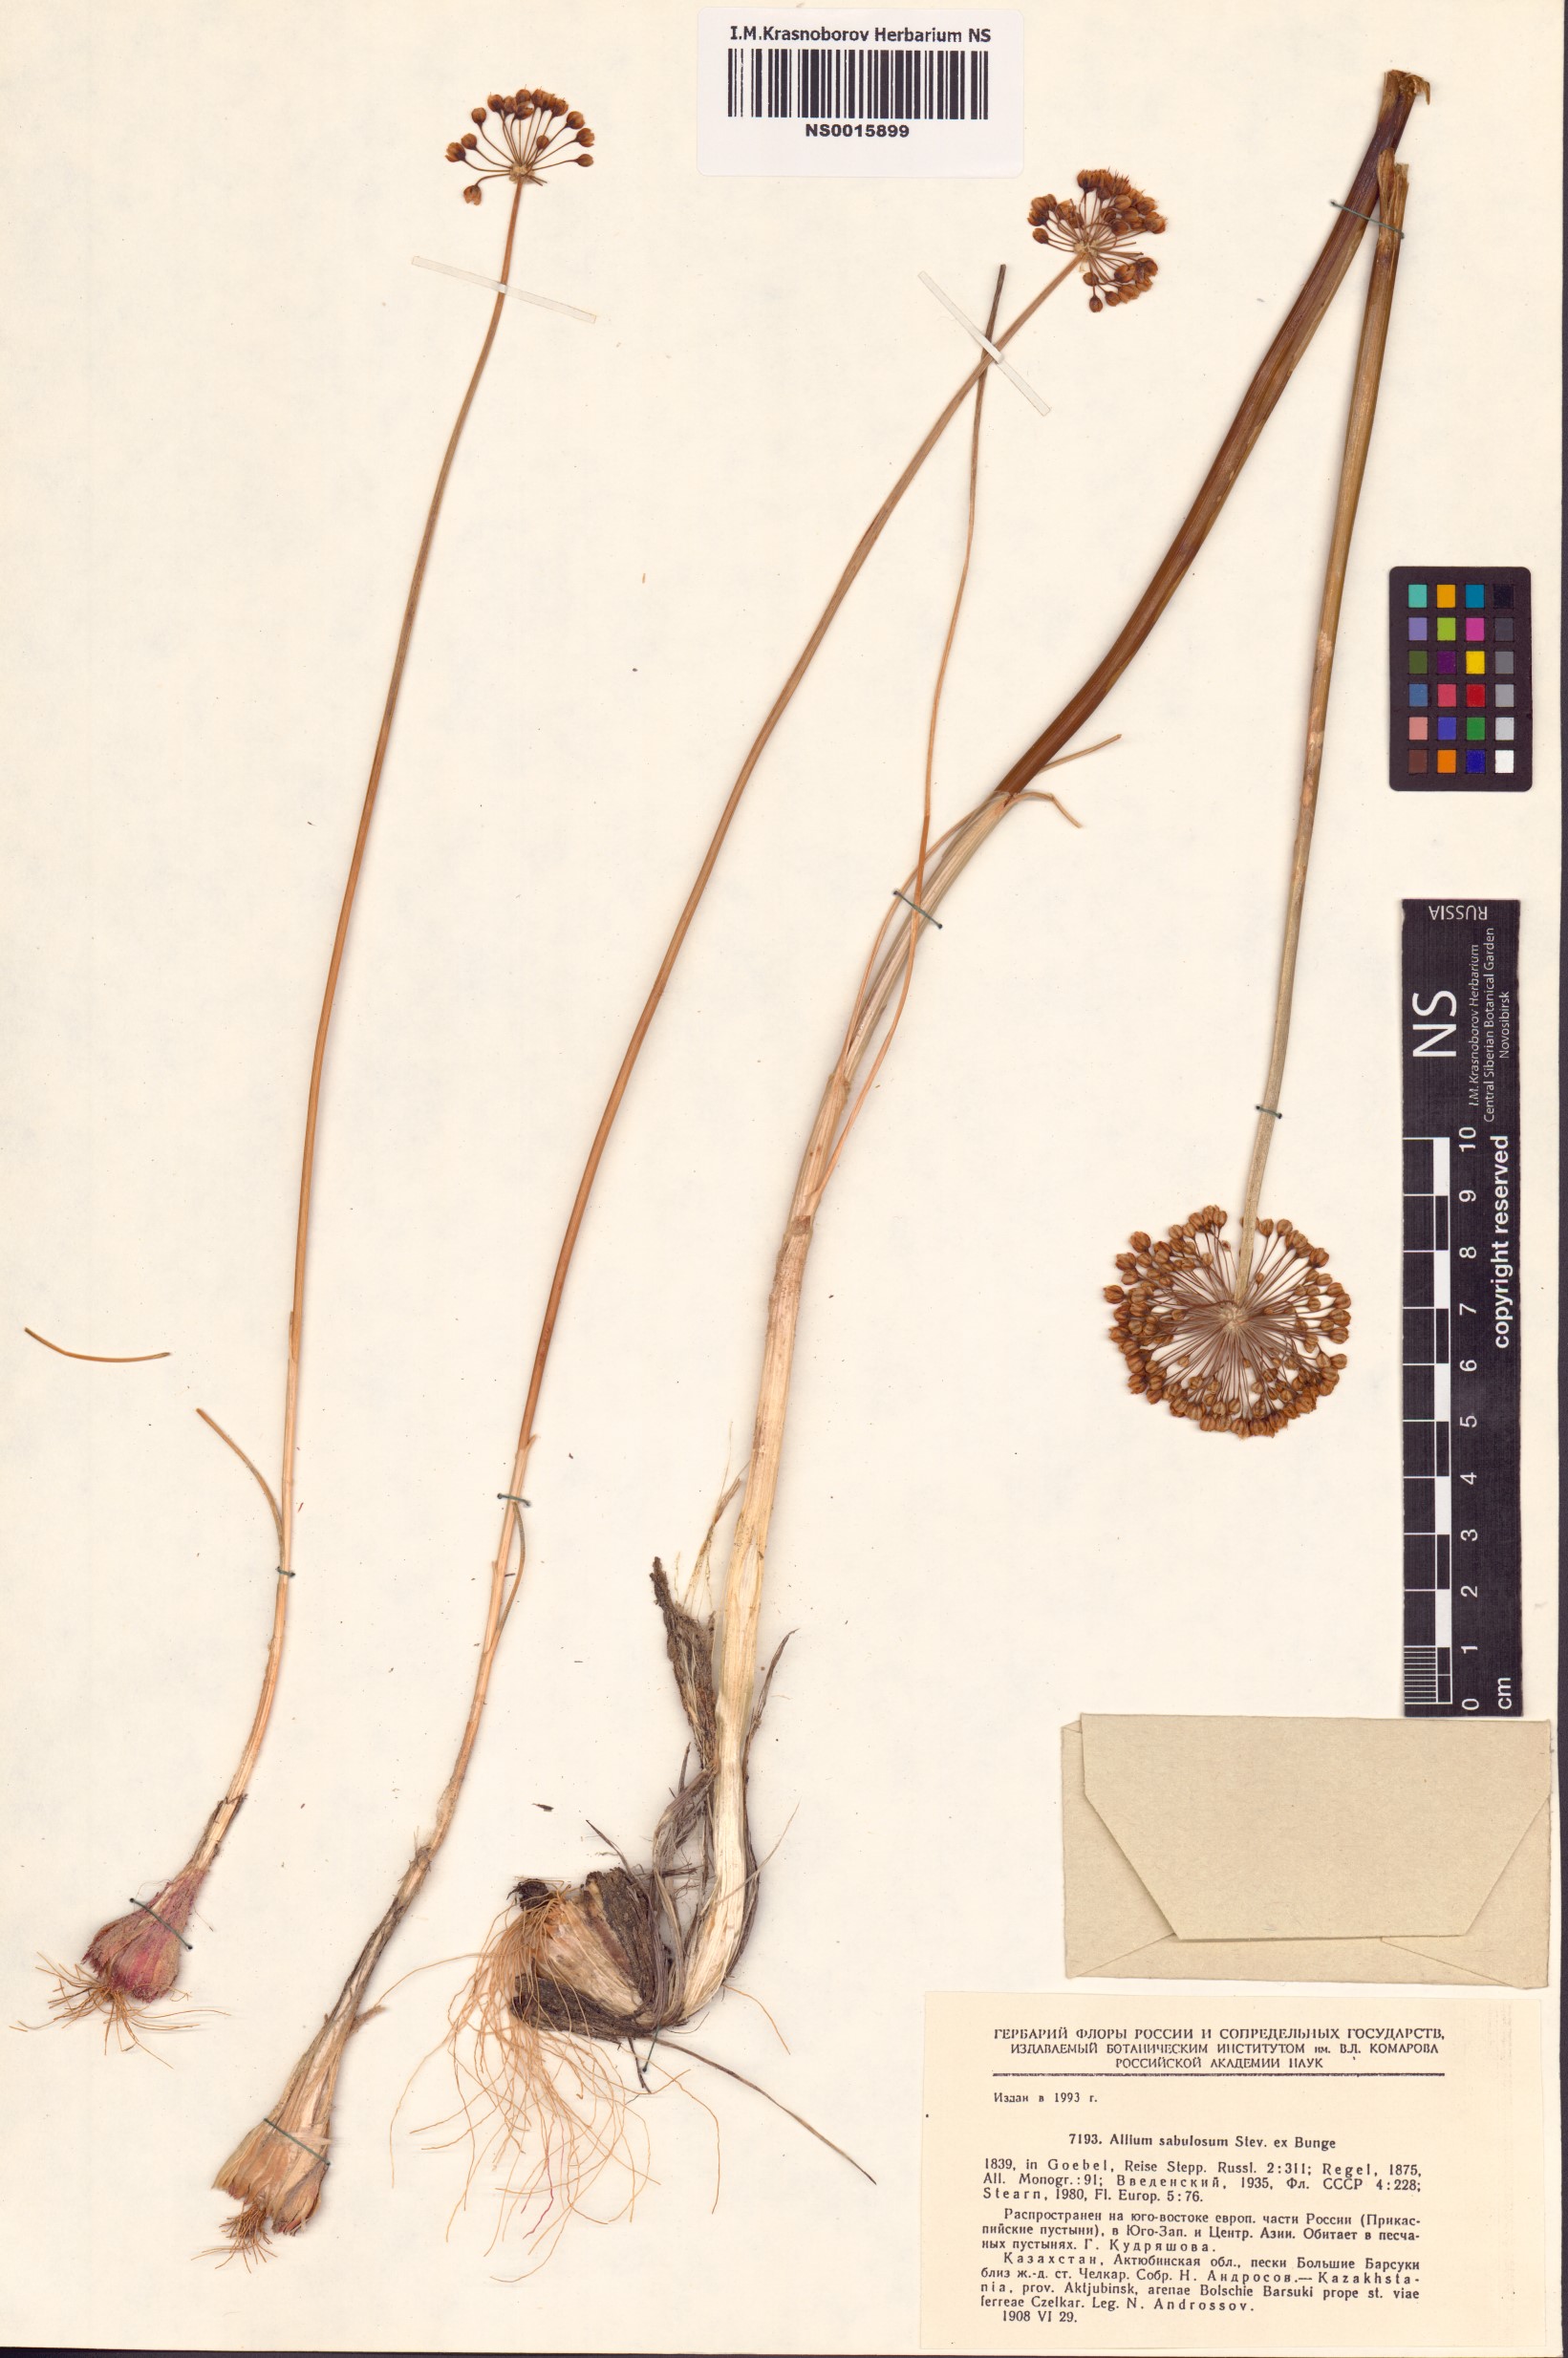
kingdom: Plantae
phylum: Tracheophyta
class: Liliopsida
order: Asparagales
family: Amaryllidaceae
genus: Allium
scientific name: Allium sabulosum
